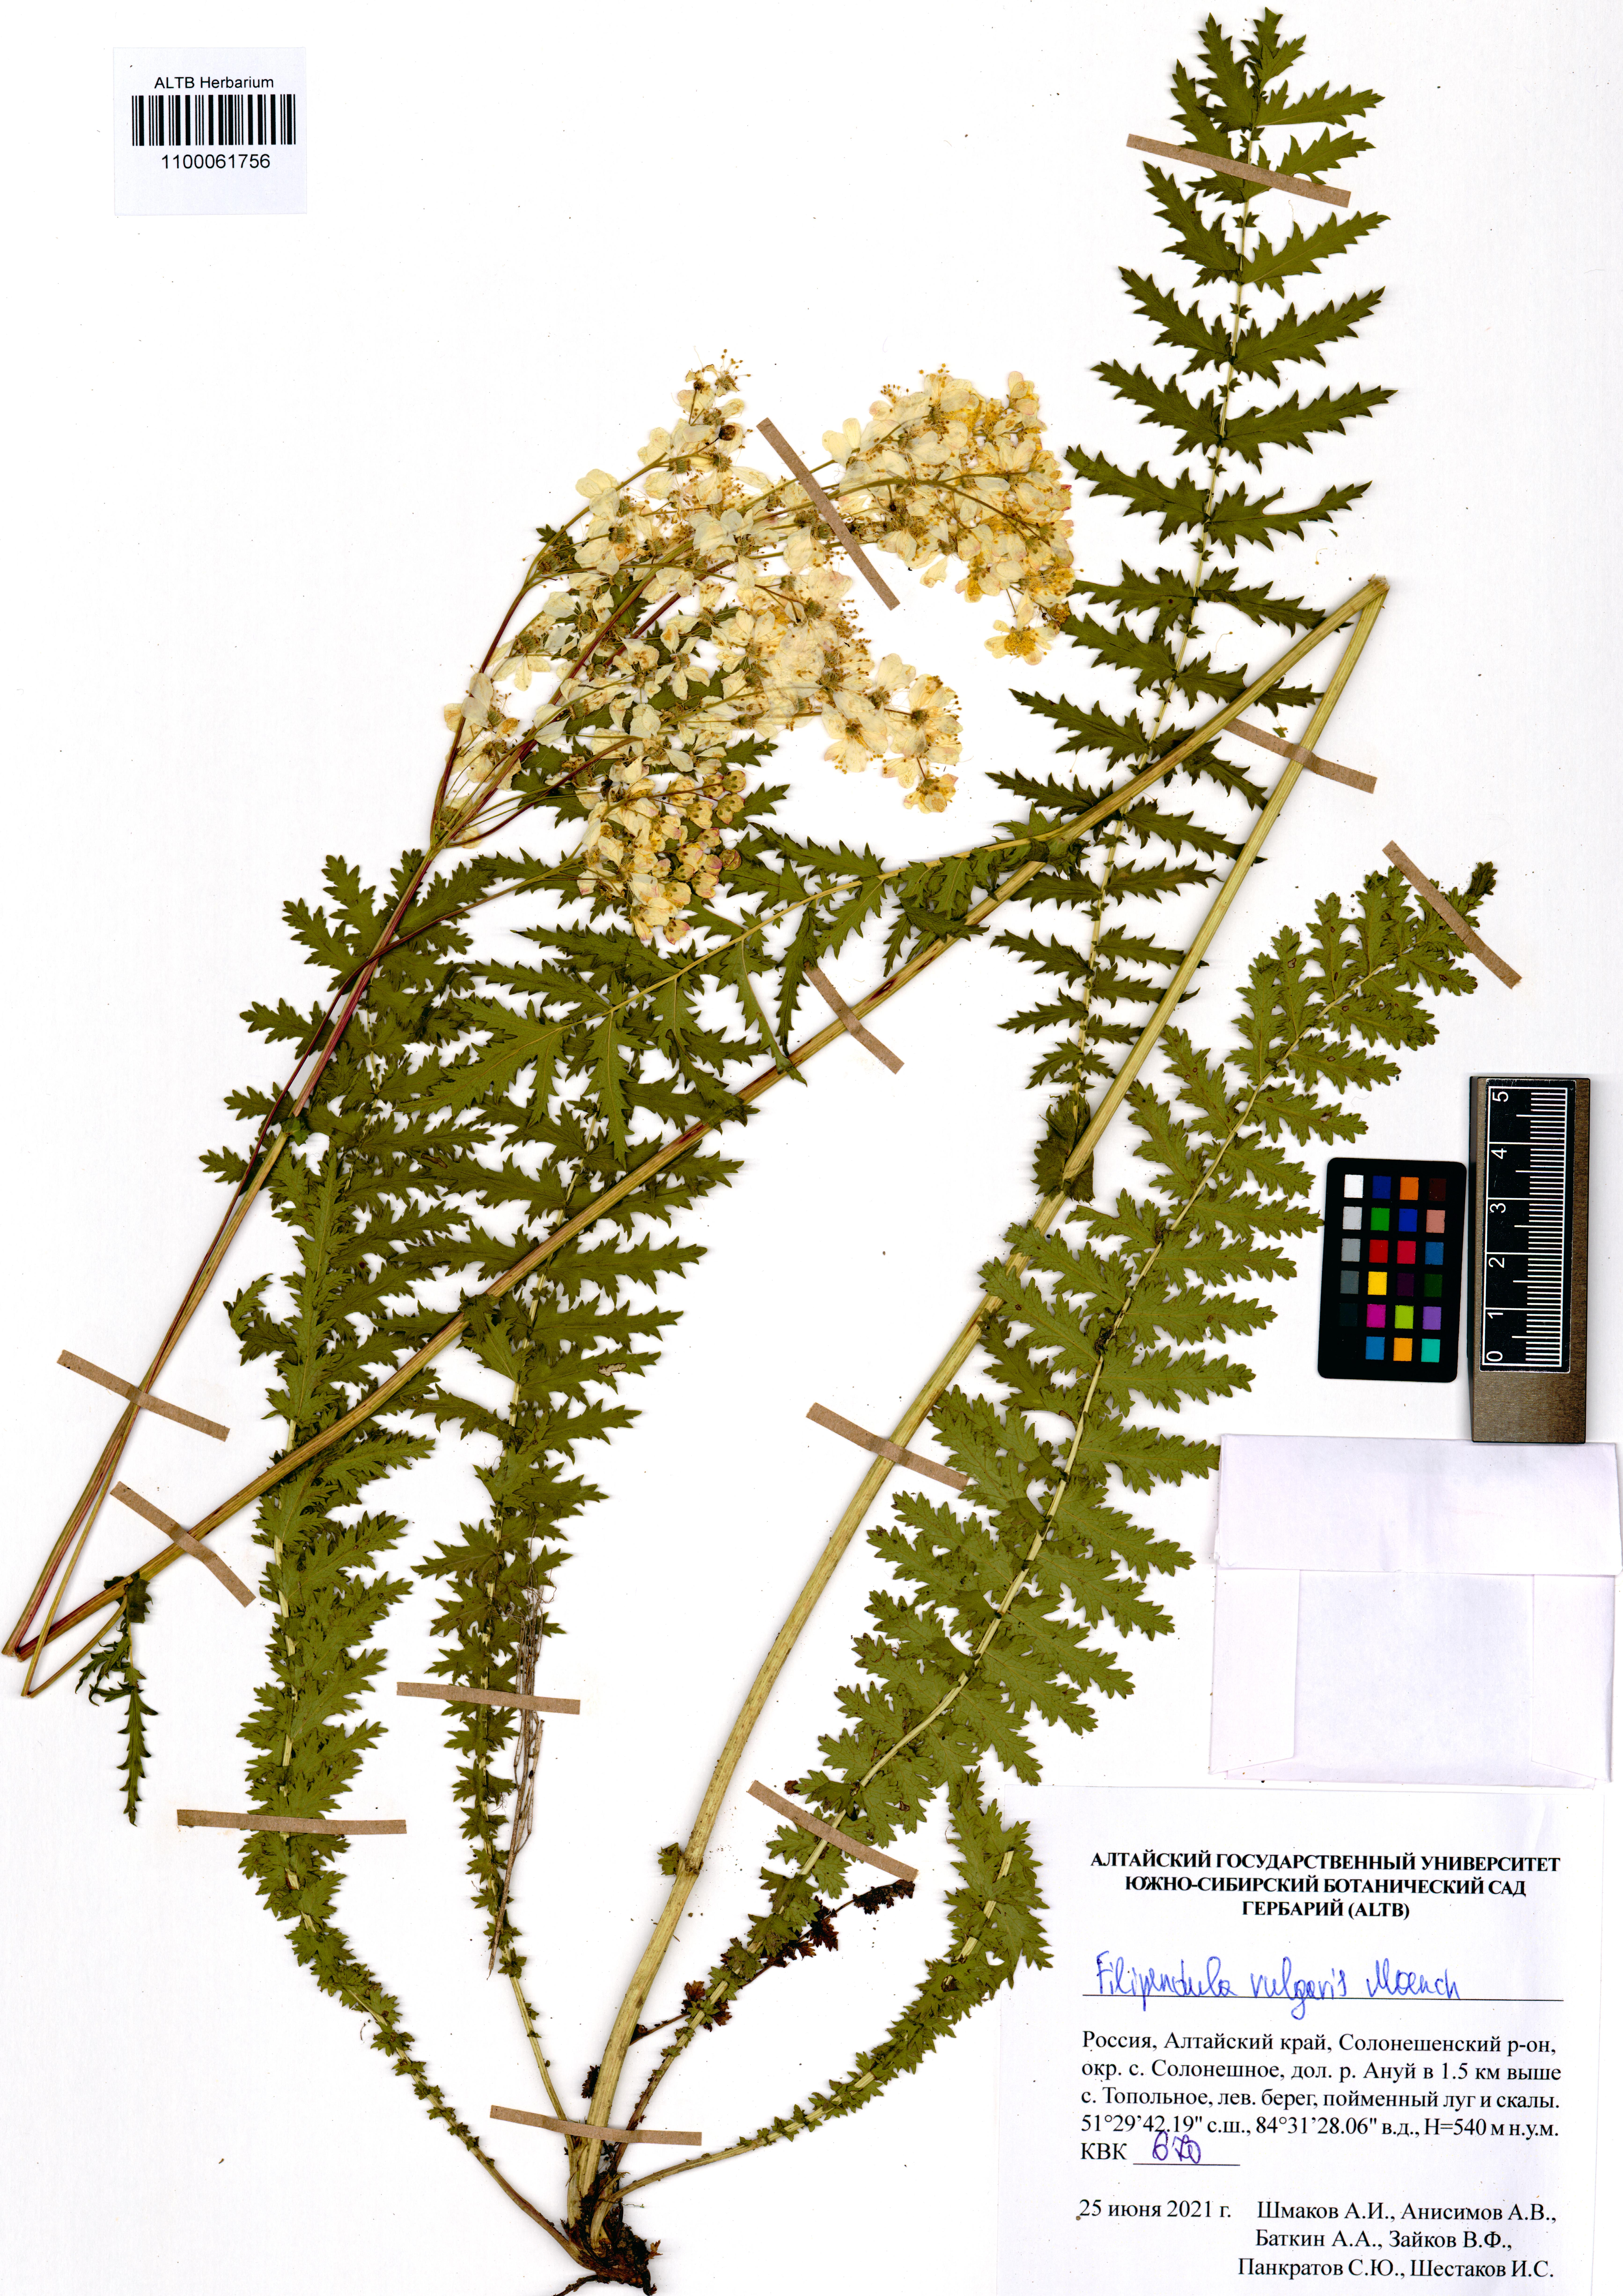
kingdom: Plantae
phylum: Tracheophyta
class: Magnoliopsida
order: Rosales
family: Rosaceae
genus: Filipendula
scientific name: Filipendula vulgaris
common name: Dropwort
